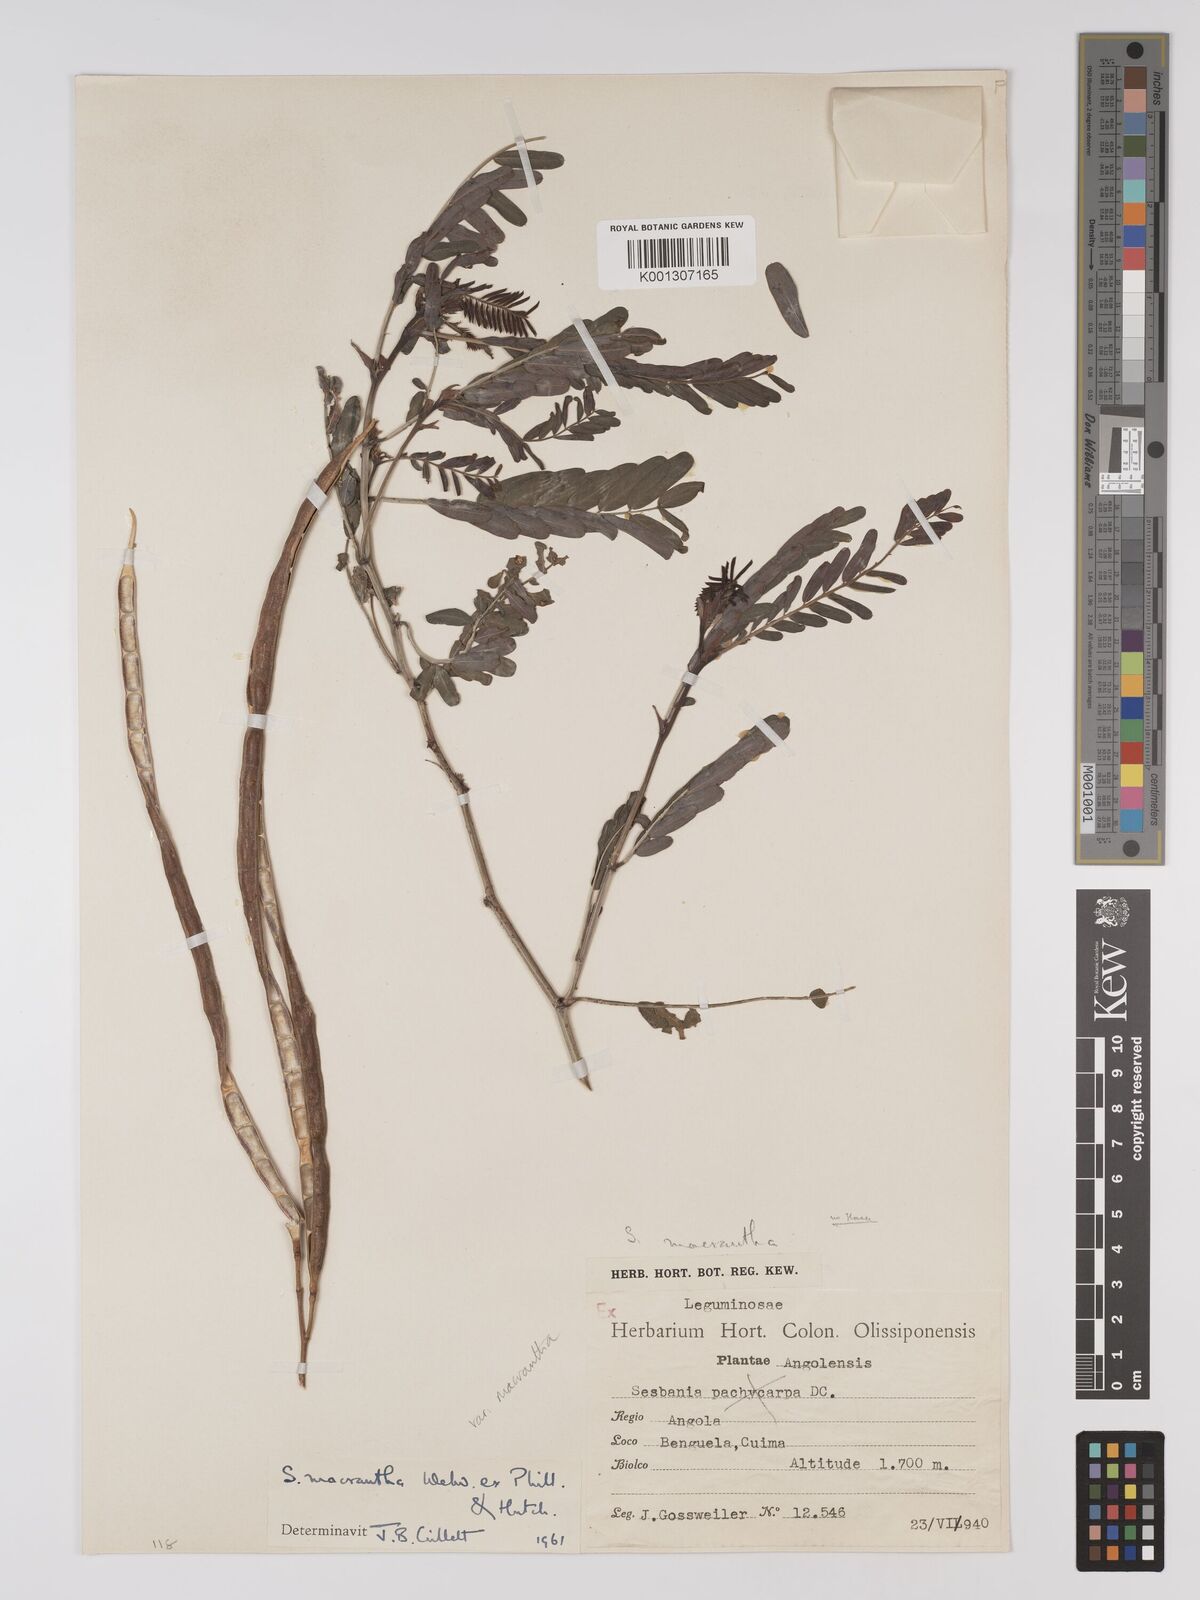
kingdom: Plantae
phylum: Tracheophyta
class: Magnoliopsida
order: Fabales
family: Fabaceae
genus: Sesbania
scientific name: Sesbania macrantha
